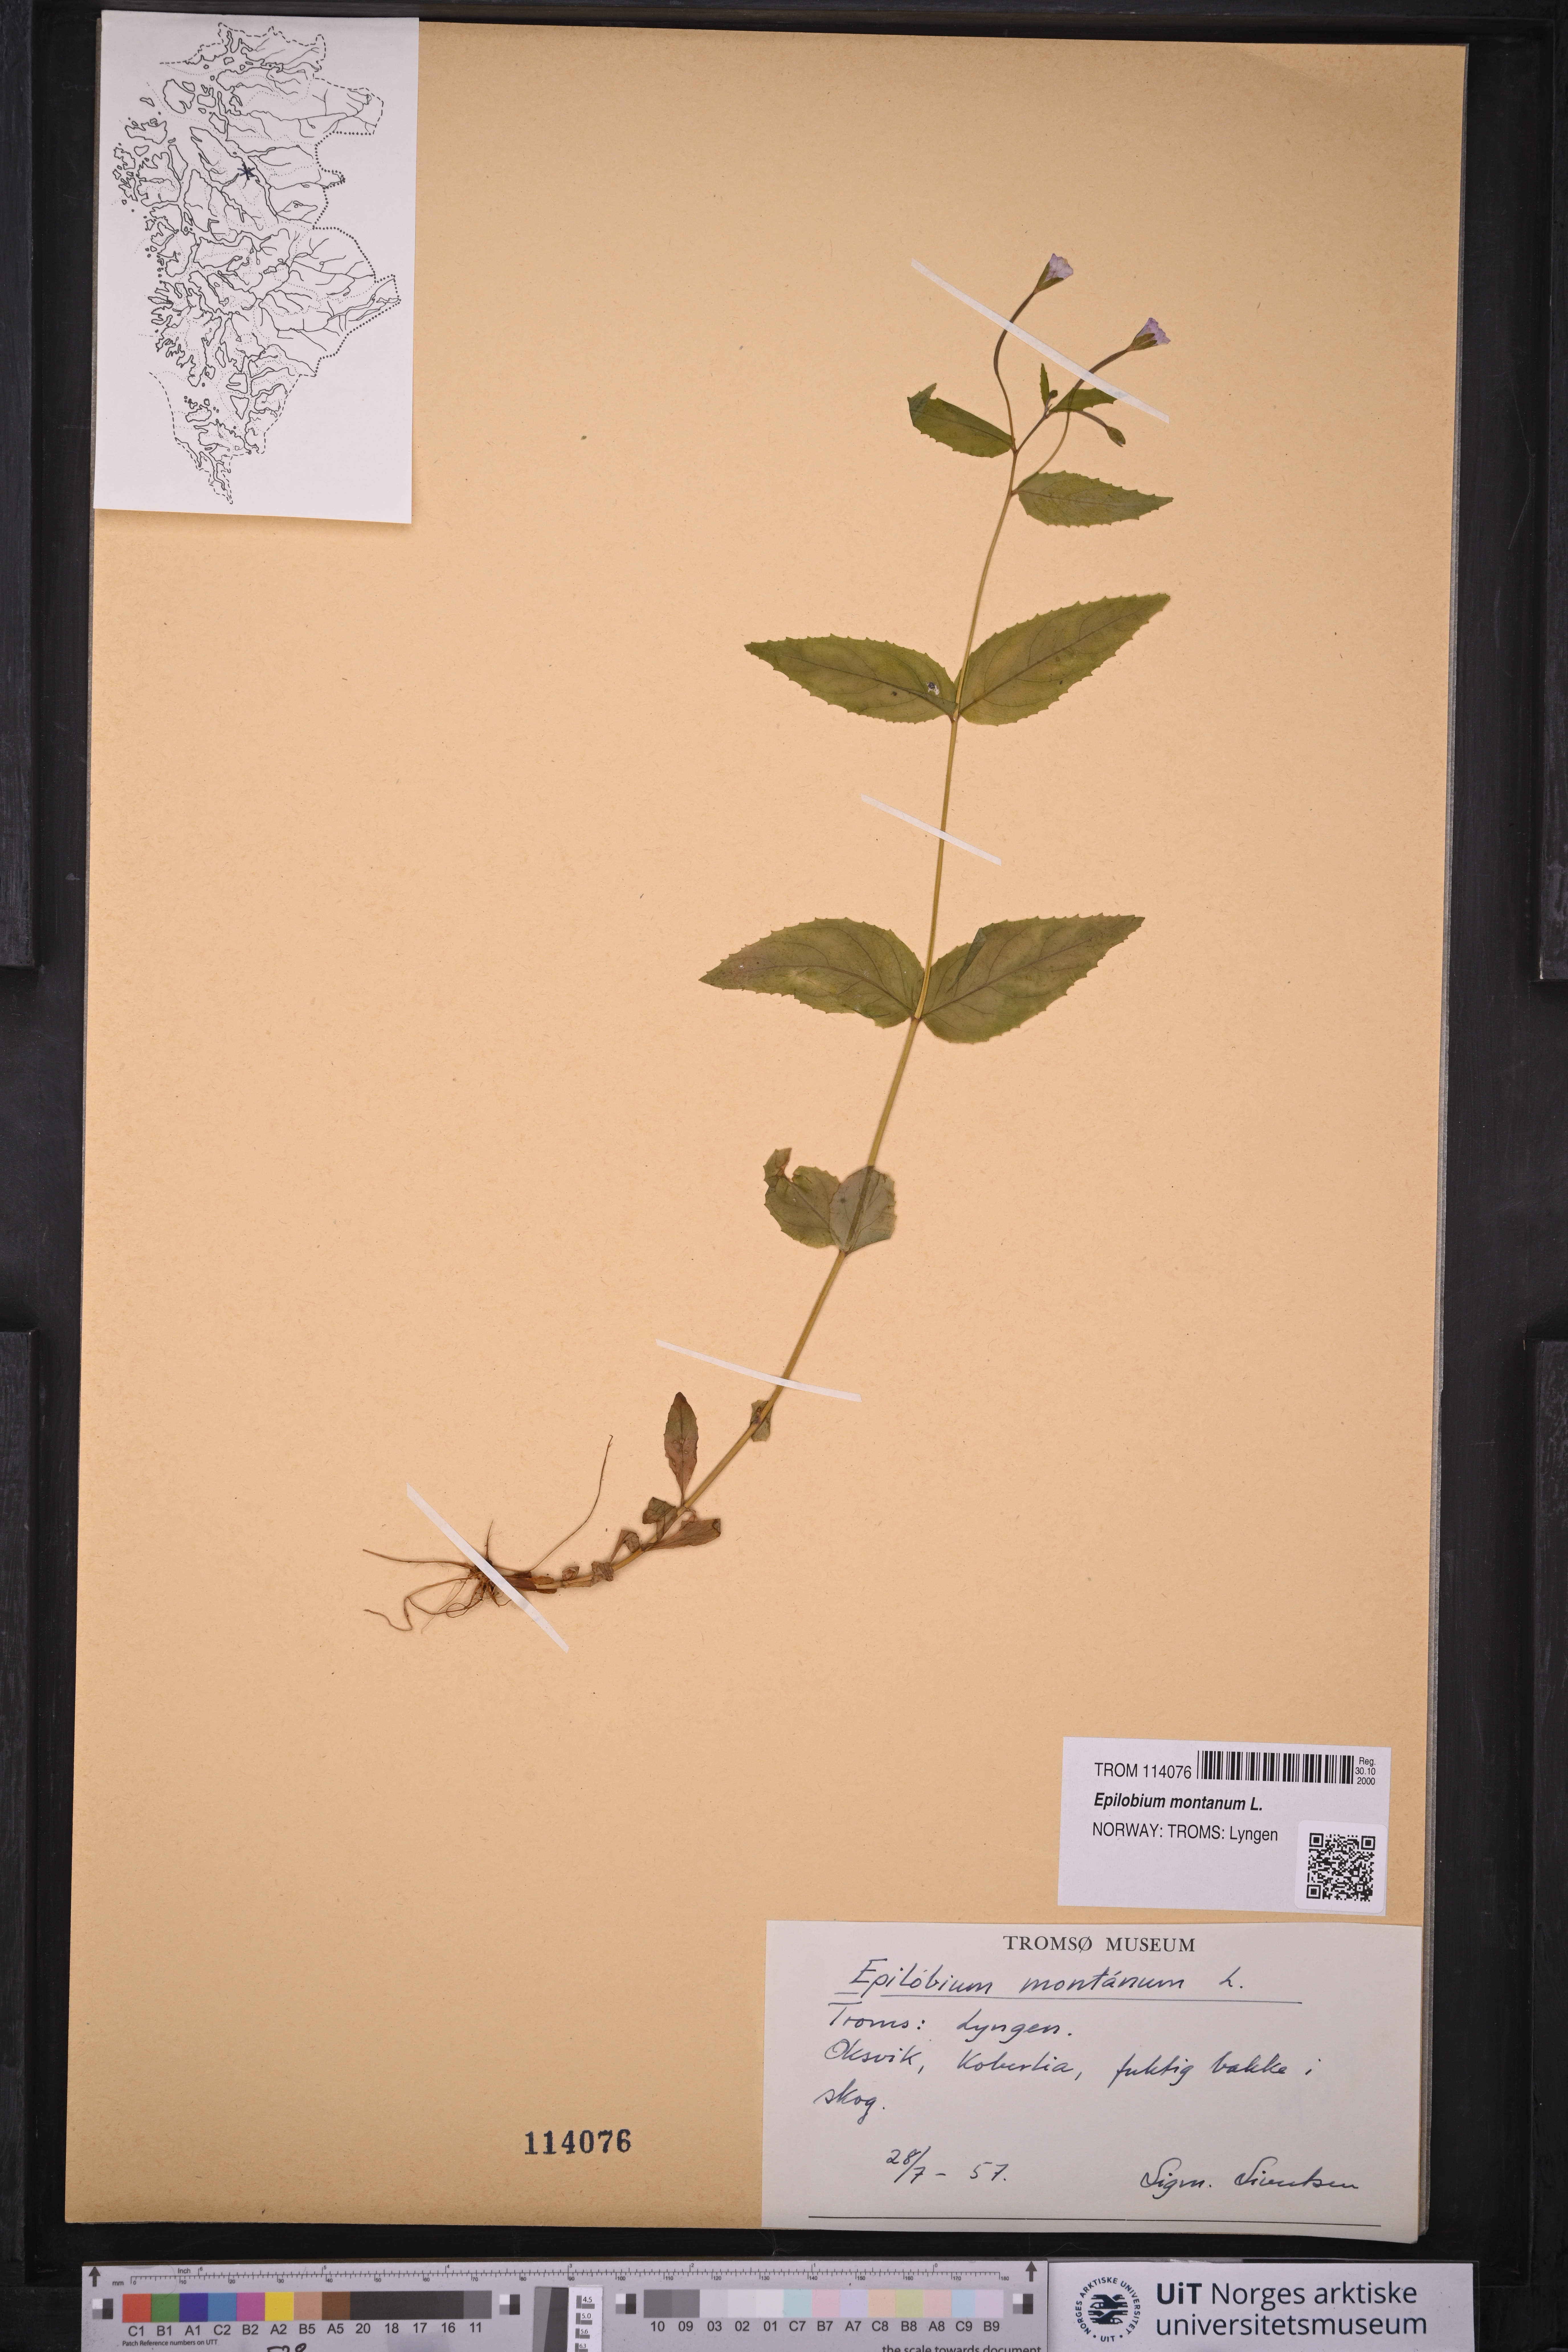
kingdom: Plantae
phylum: Tracheophyta
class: Magnoliopsida
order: Myrtales
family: Onagraceae
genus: Epilobium
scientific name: Epilobium montanum
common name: Broad-leaved willowherb
